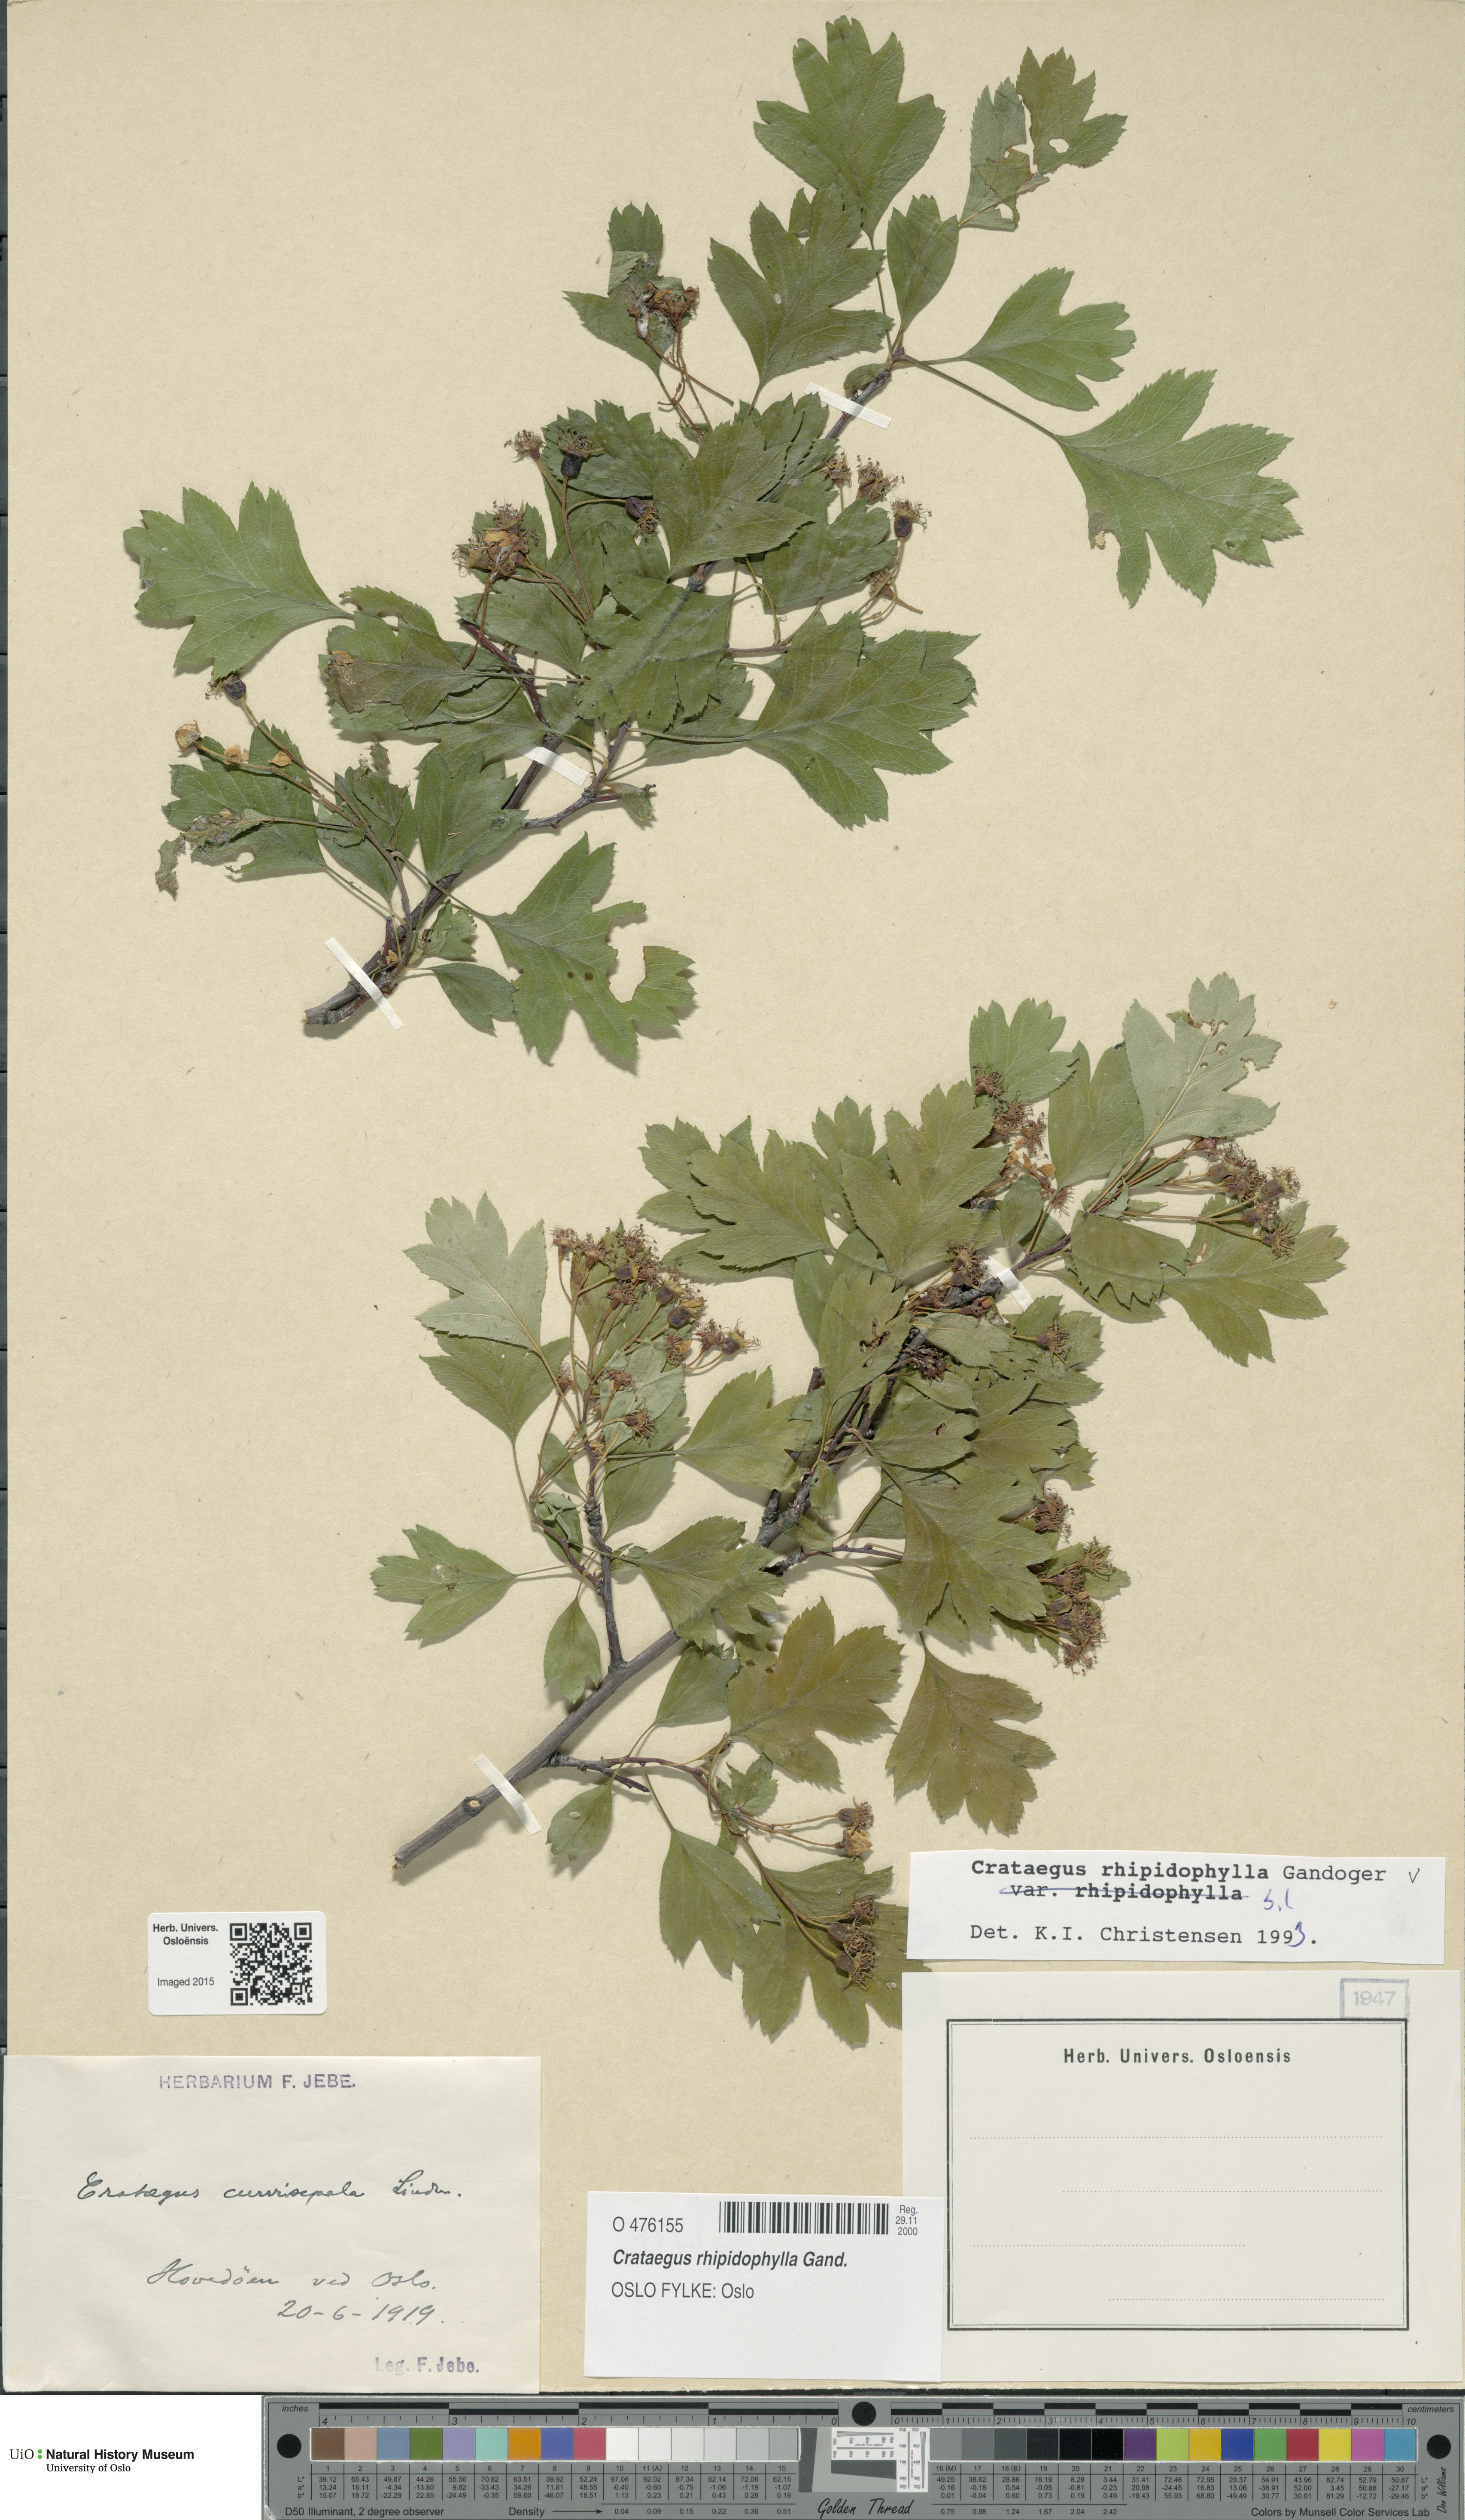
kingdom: Plantae
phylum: Tracheophyta
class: Magnoliopsida
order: Rosales
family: Rosaceae
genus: Crataegus
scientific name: Crataegus rhipidophylla
